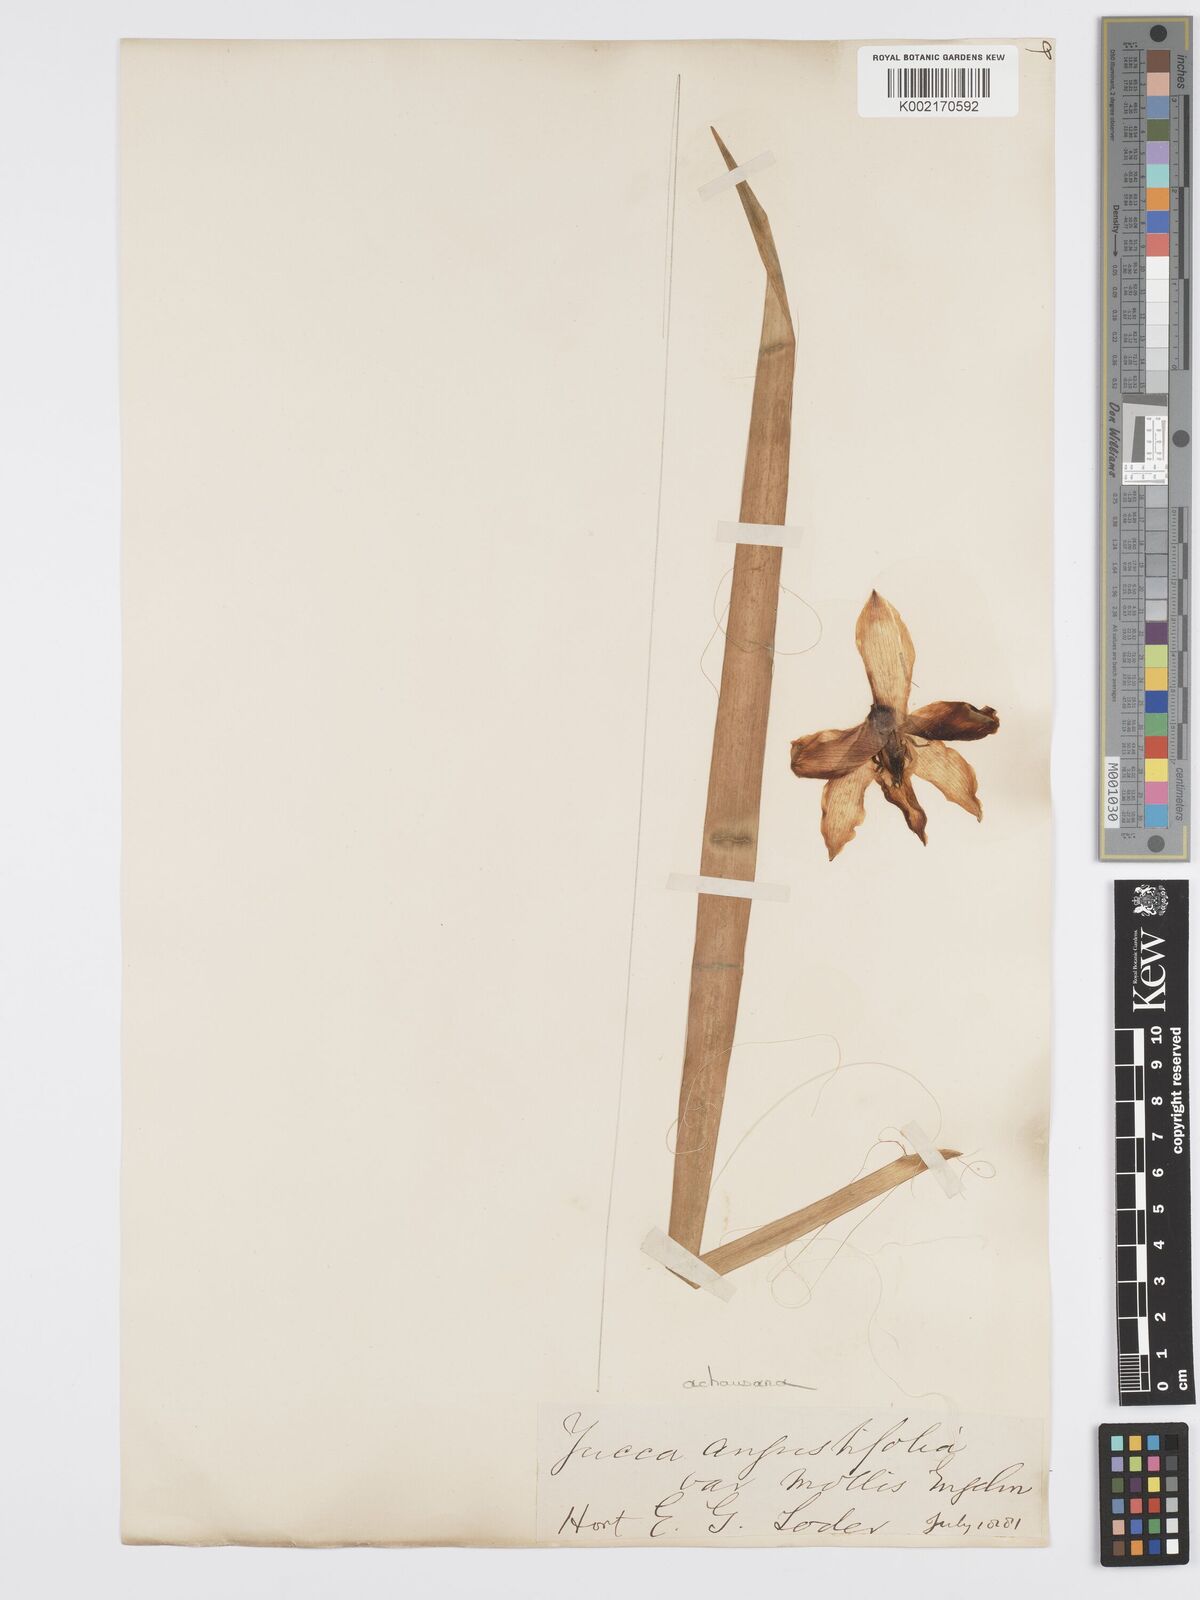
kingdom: Plantae
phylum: Tracheophyta
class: Liliopsida
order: Asparagales
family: Asparagaceae
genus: Yucca
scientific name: Yucca
